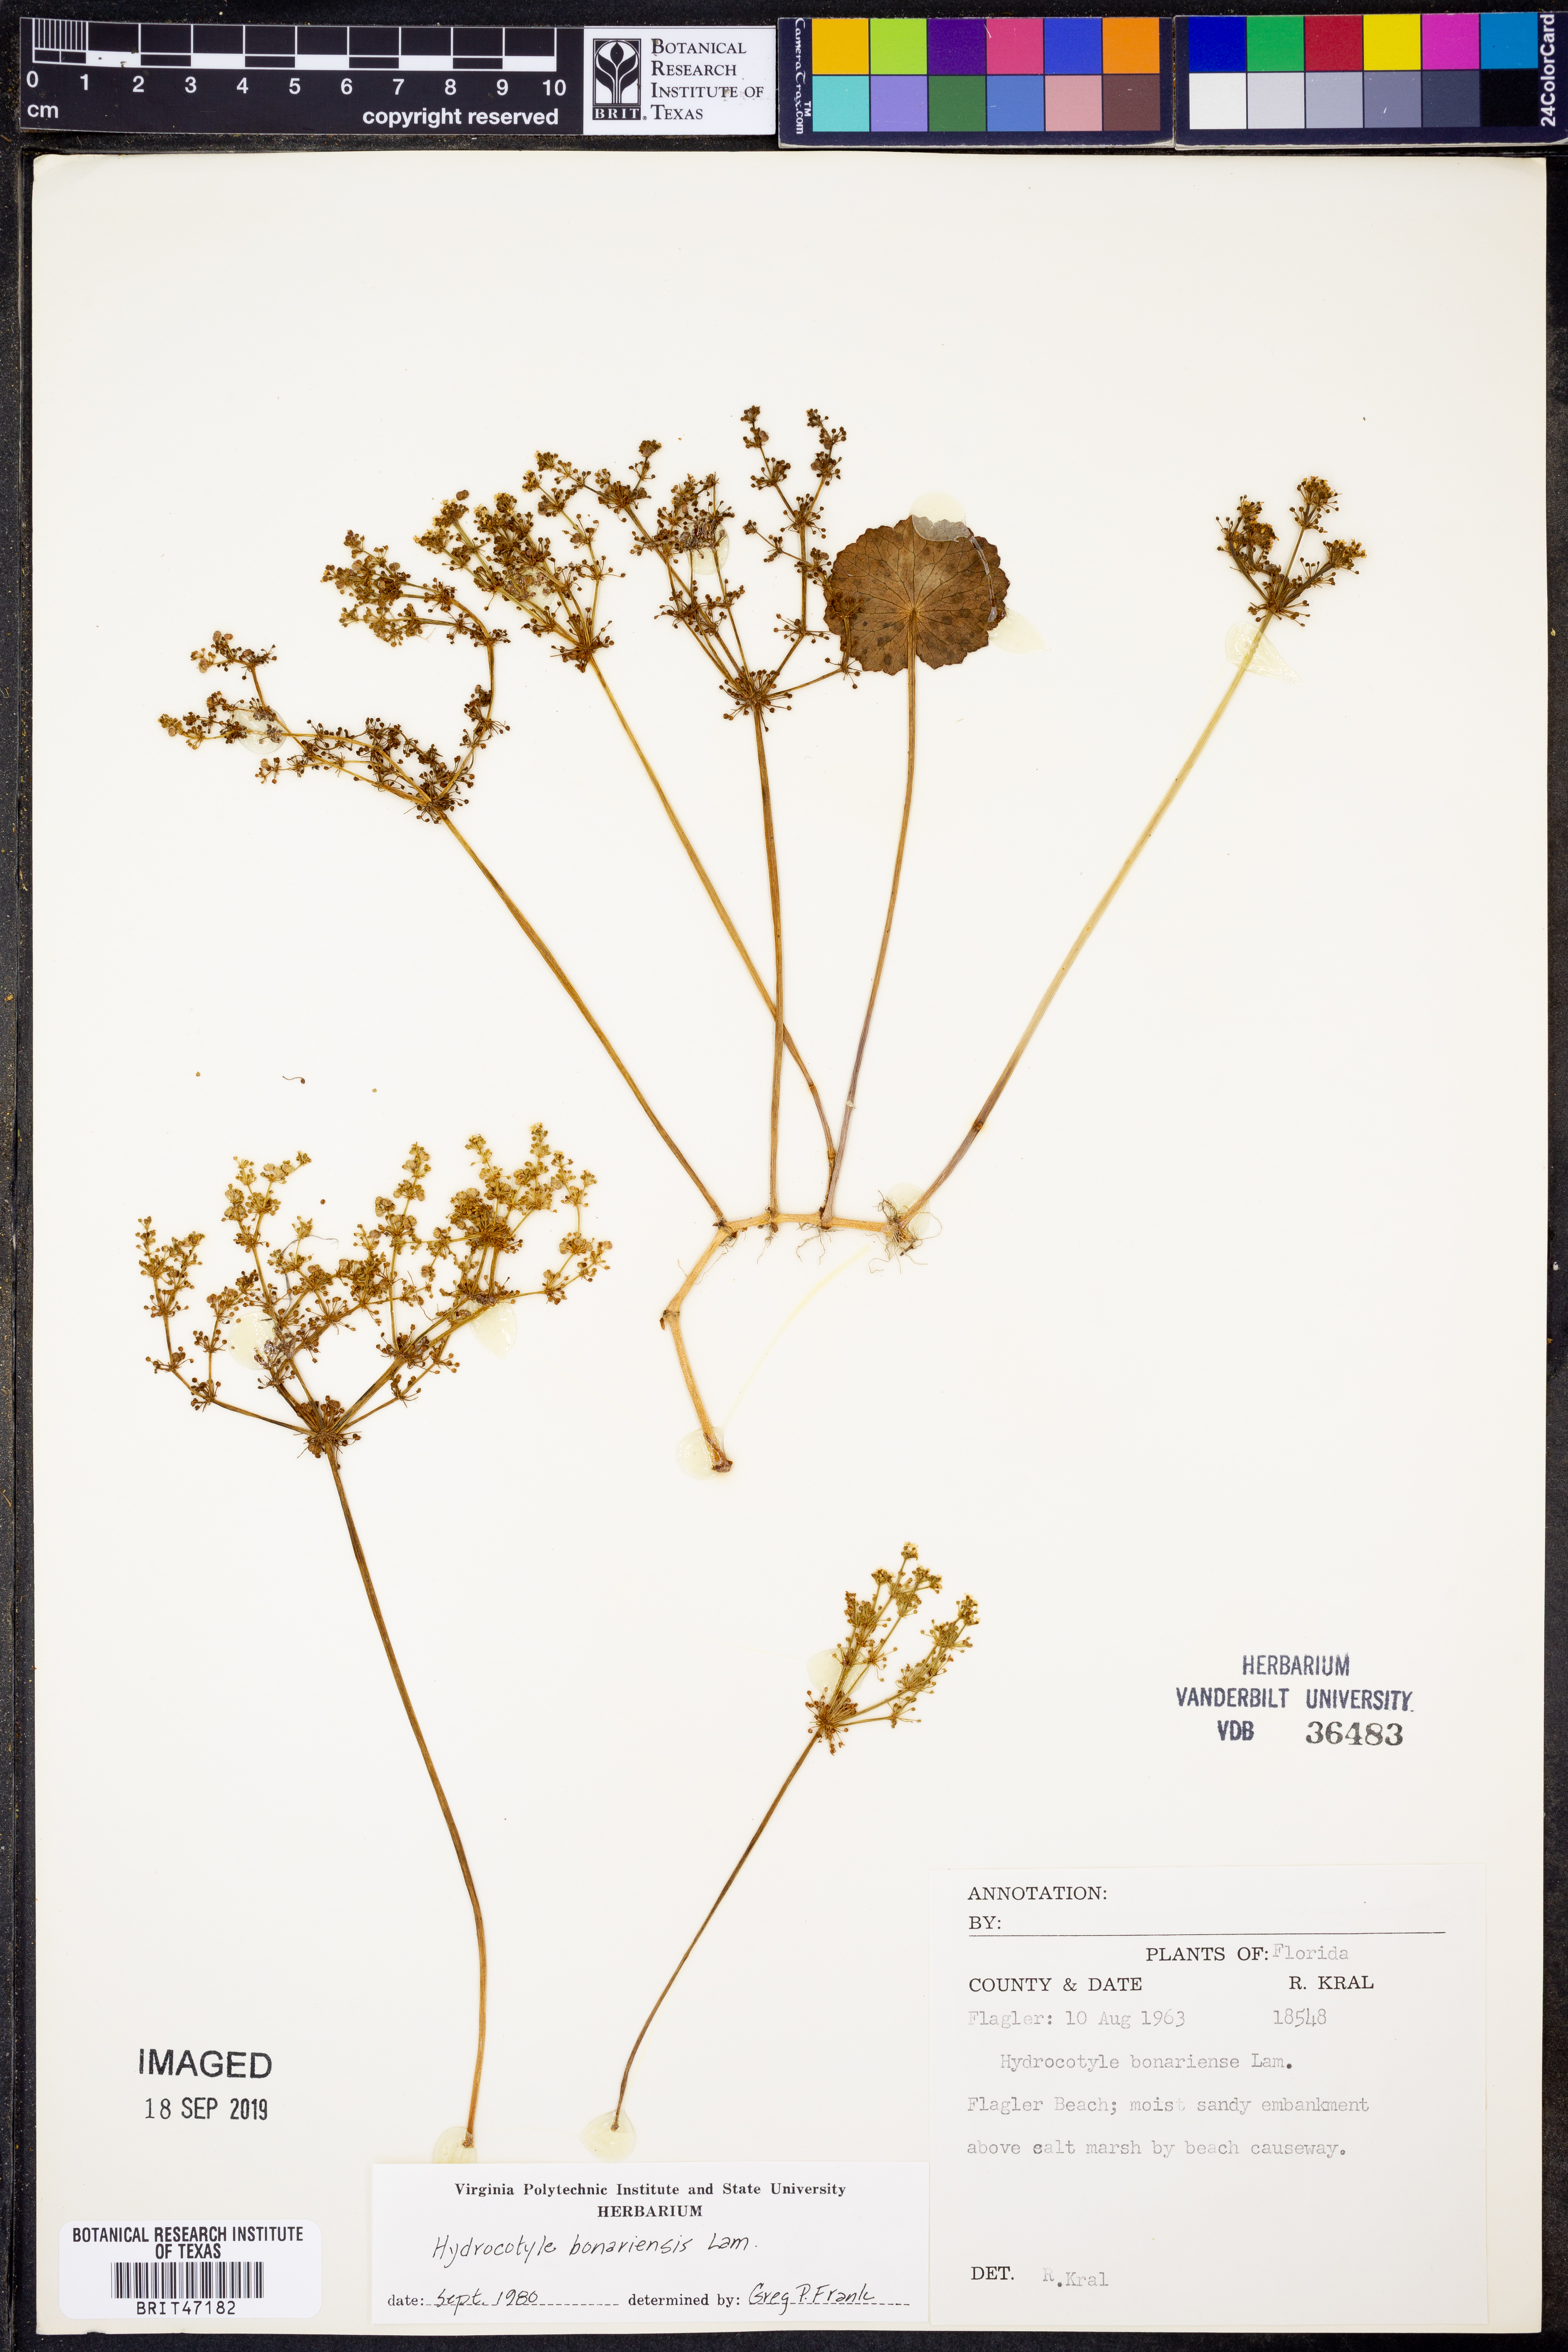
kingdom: Plantae
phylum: Tracheophyta
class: Magnoliopsida
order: Apiales
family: Araliaceae
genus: Hydrocotyle
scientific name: Hydrocotyle bonariensis
